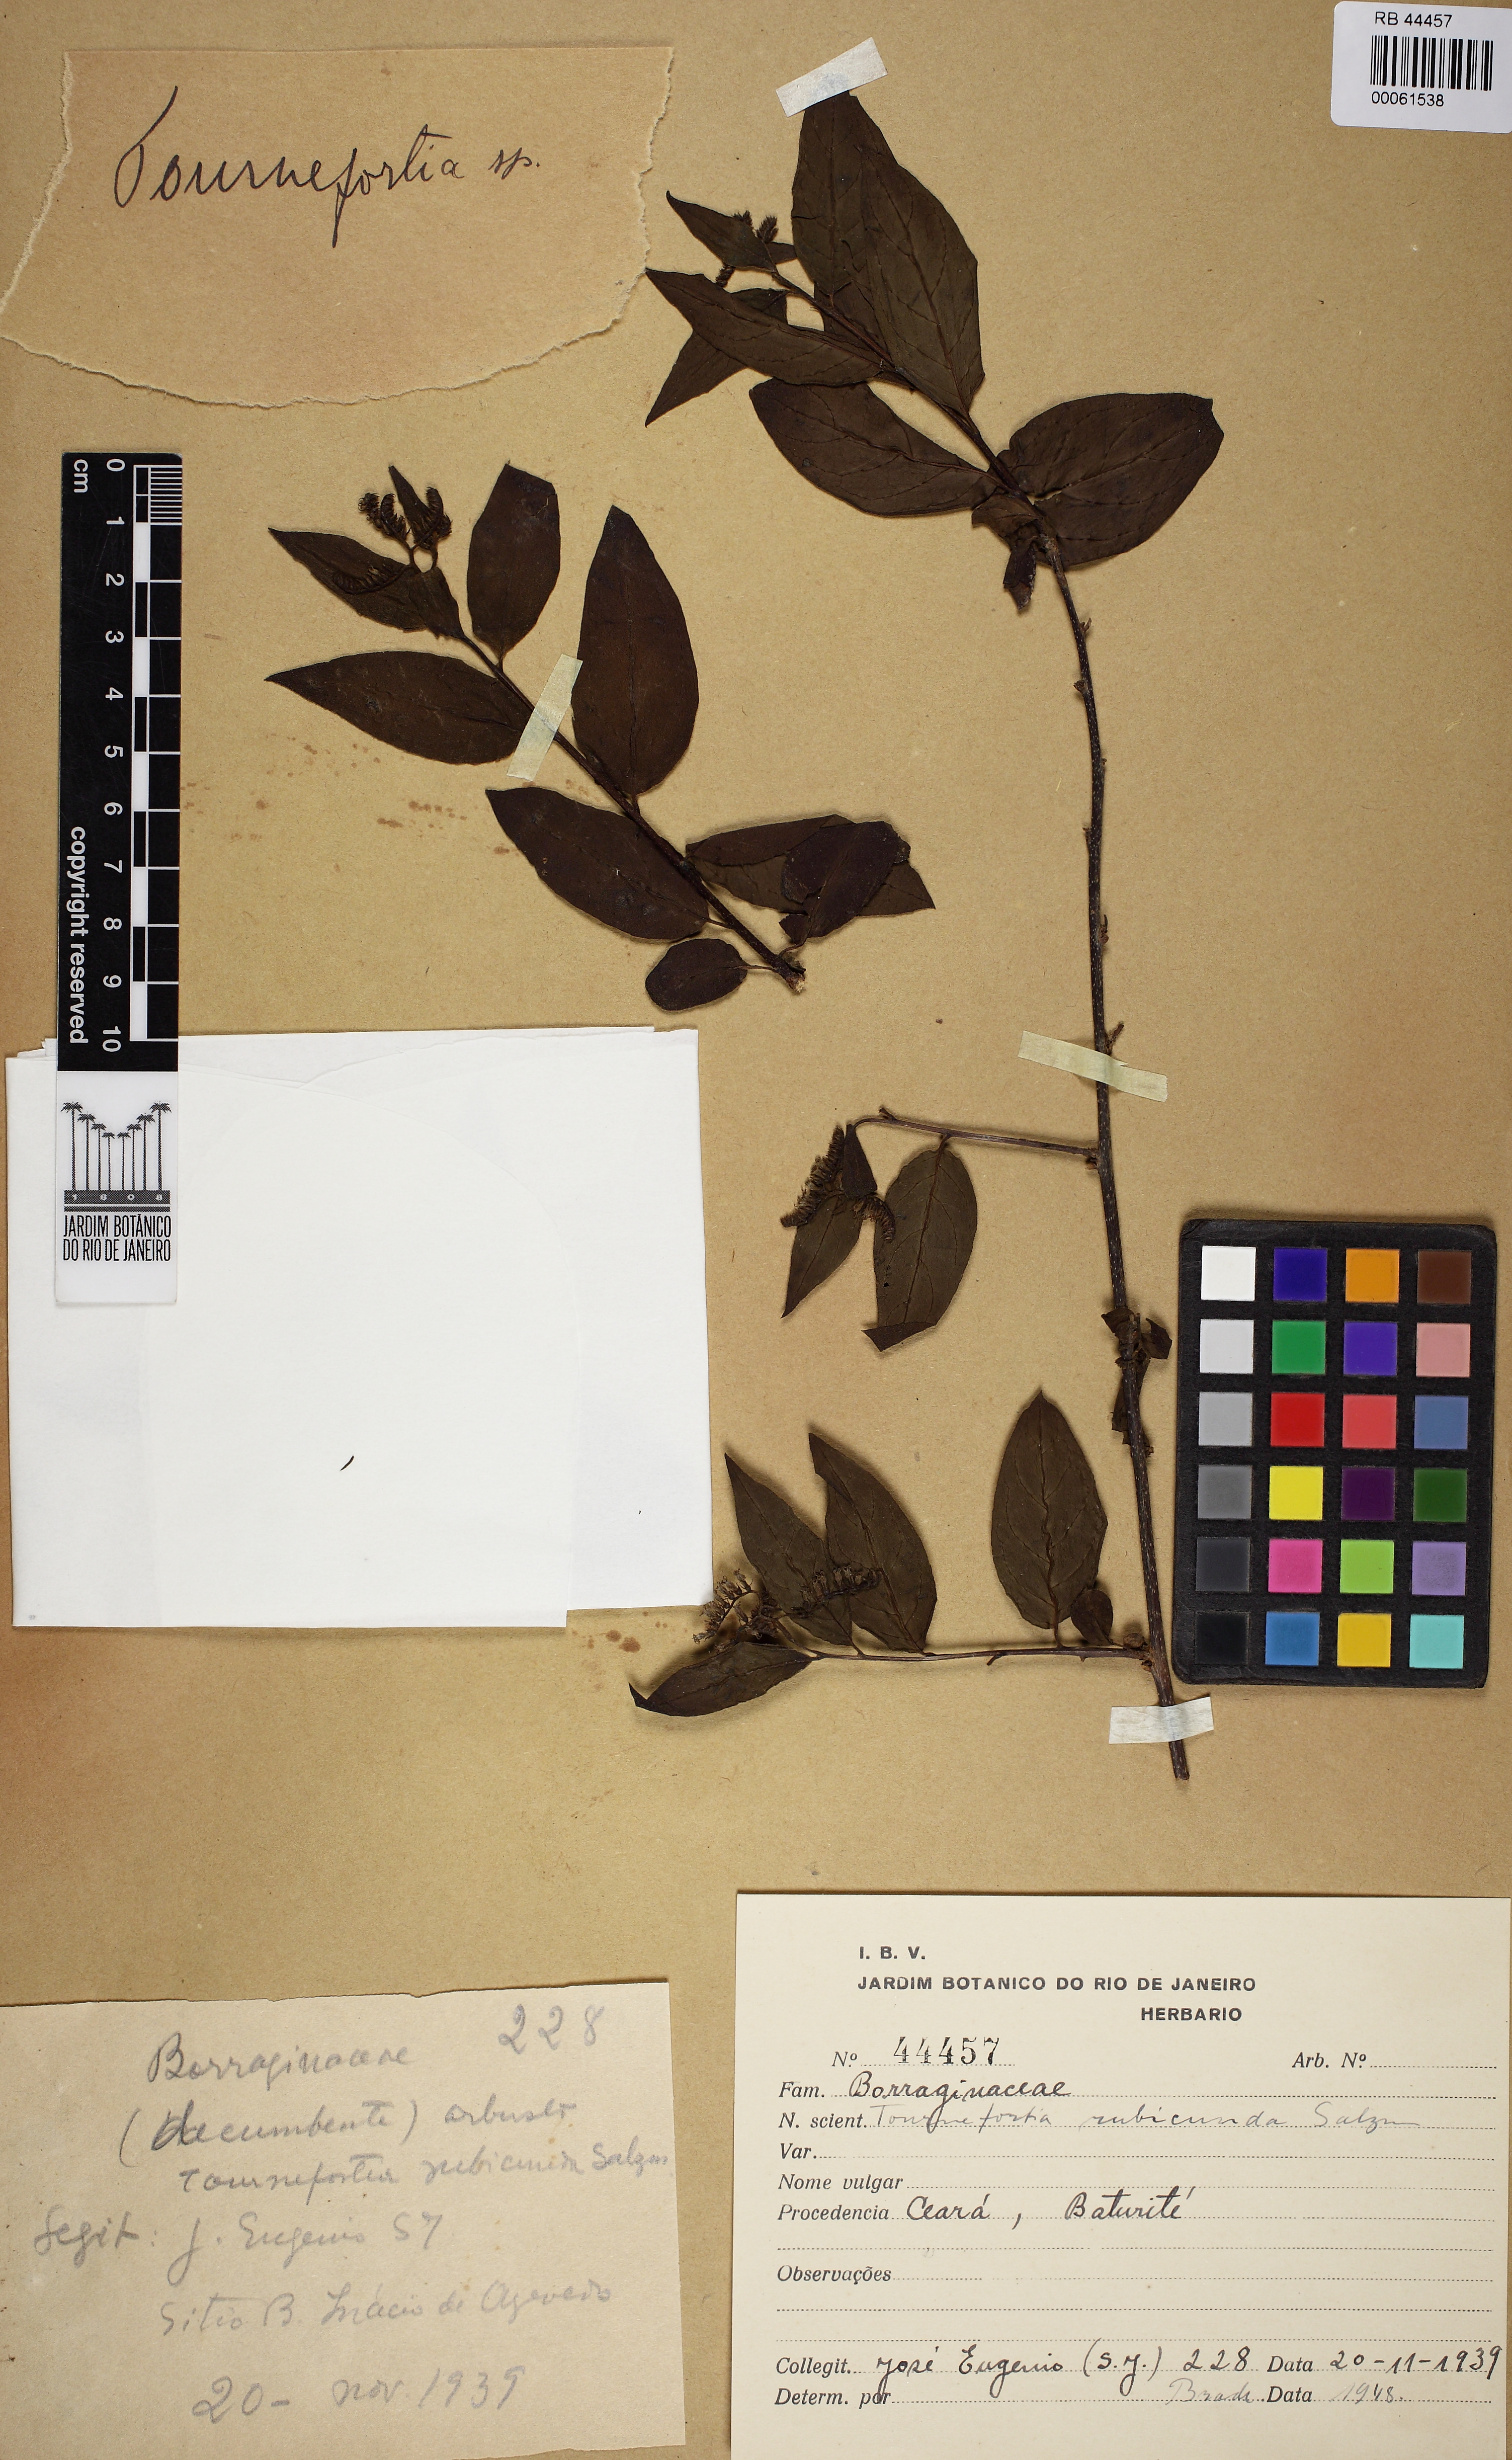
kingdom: Plantae
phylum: Tracheophyta
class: Magnoliopsida
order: Boraginales
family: Heliotropiaceae
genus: Myriopus
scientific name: Myriopus rubicundus
